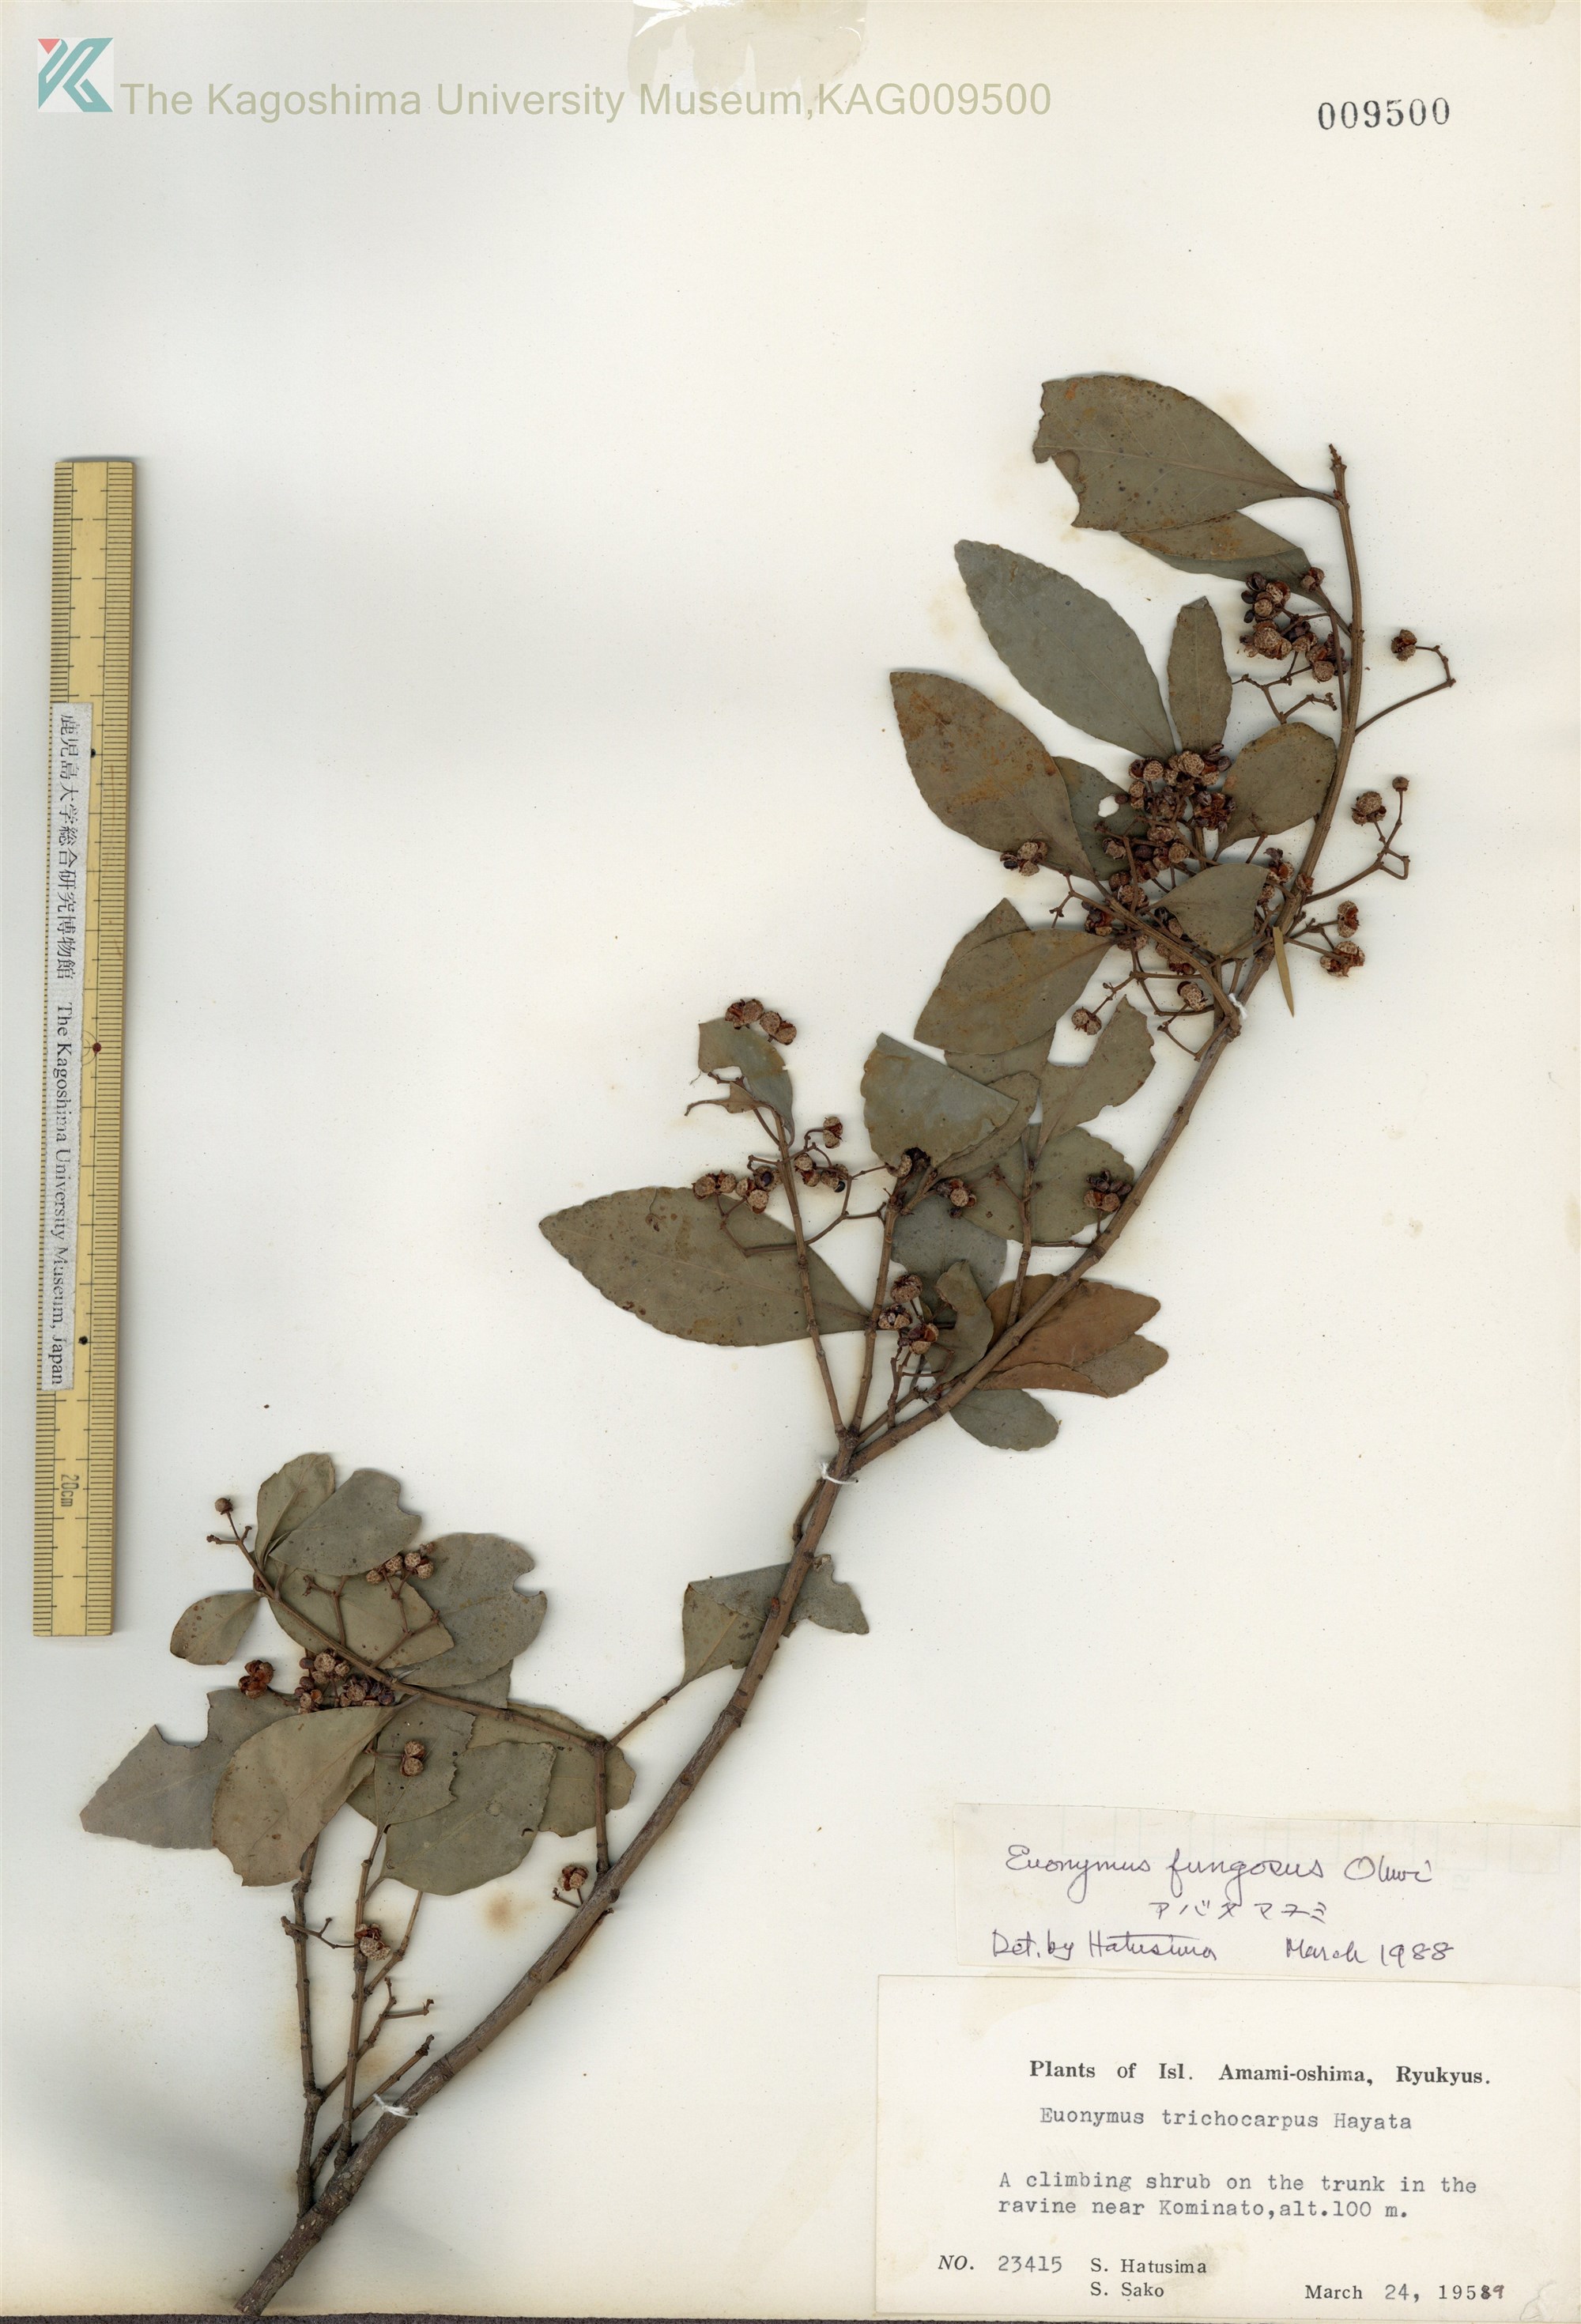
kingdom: Plantae
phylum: Tracheophyta
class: Magnoliopsida
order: Celastrales
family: Celastraceae
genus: Euonymus
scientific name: Euonymus echinatus
